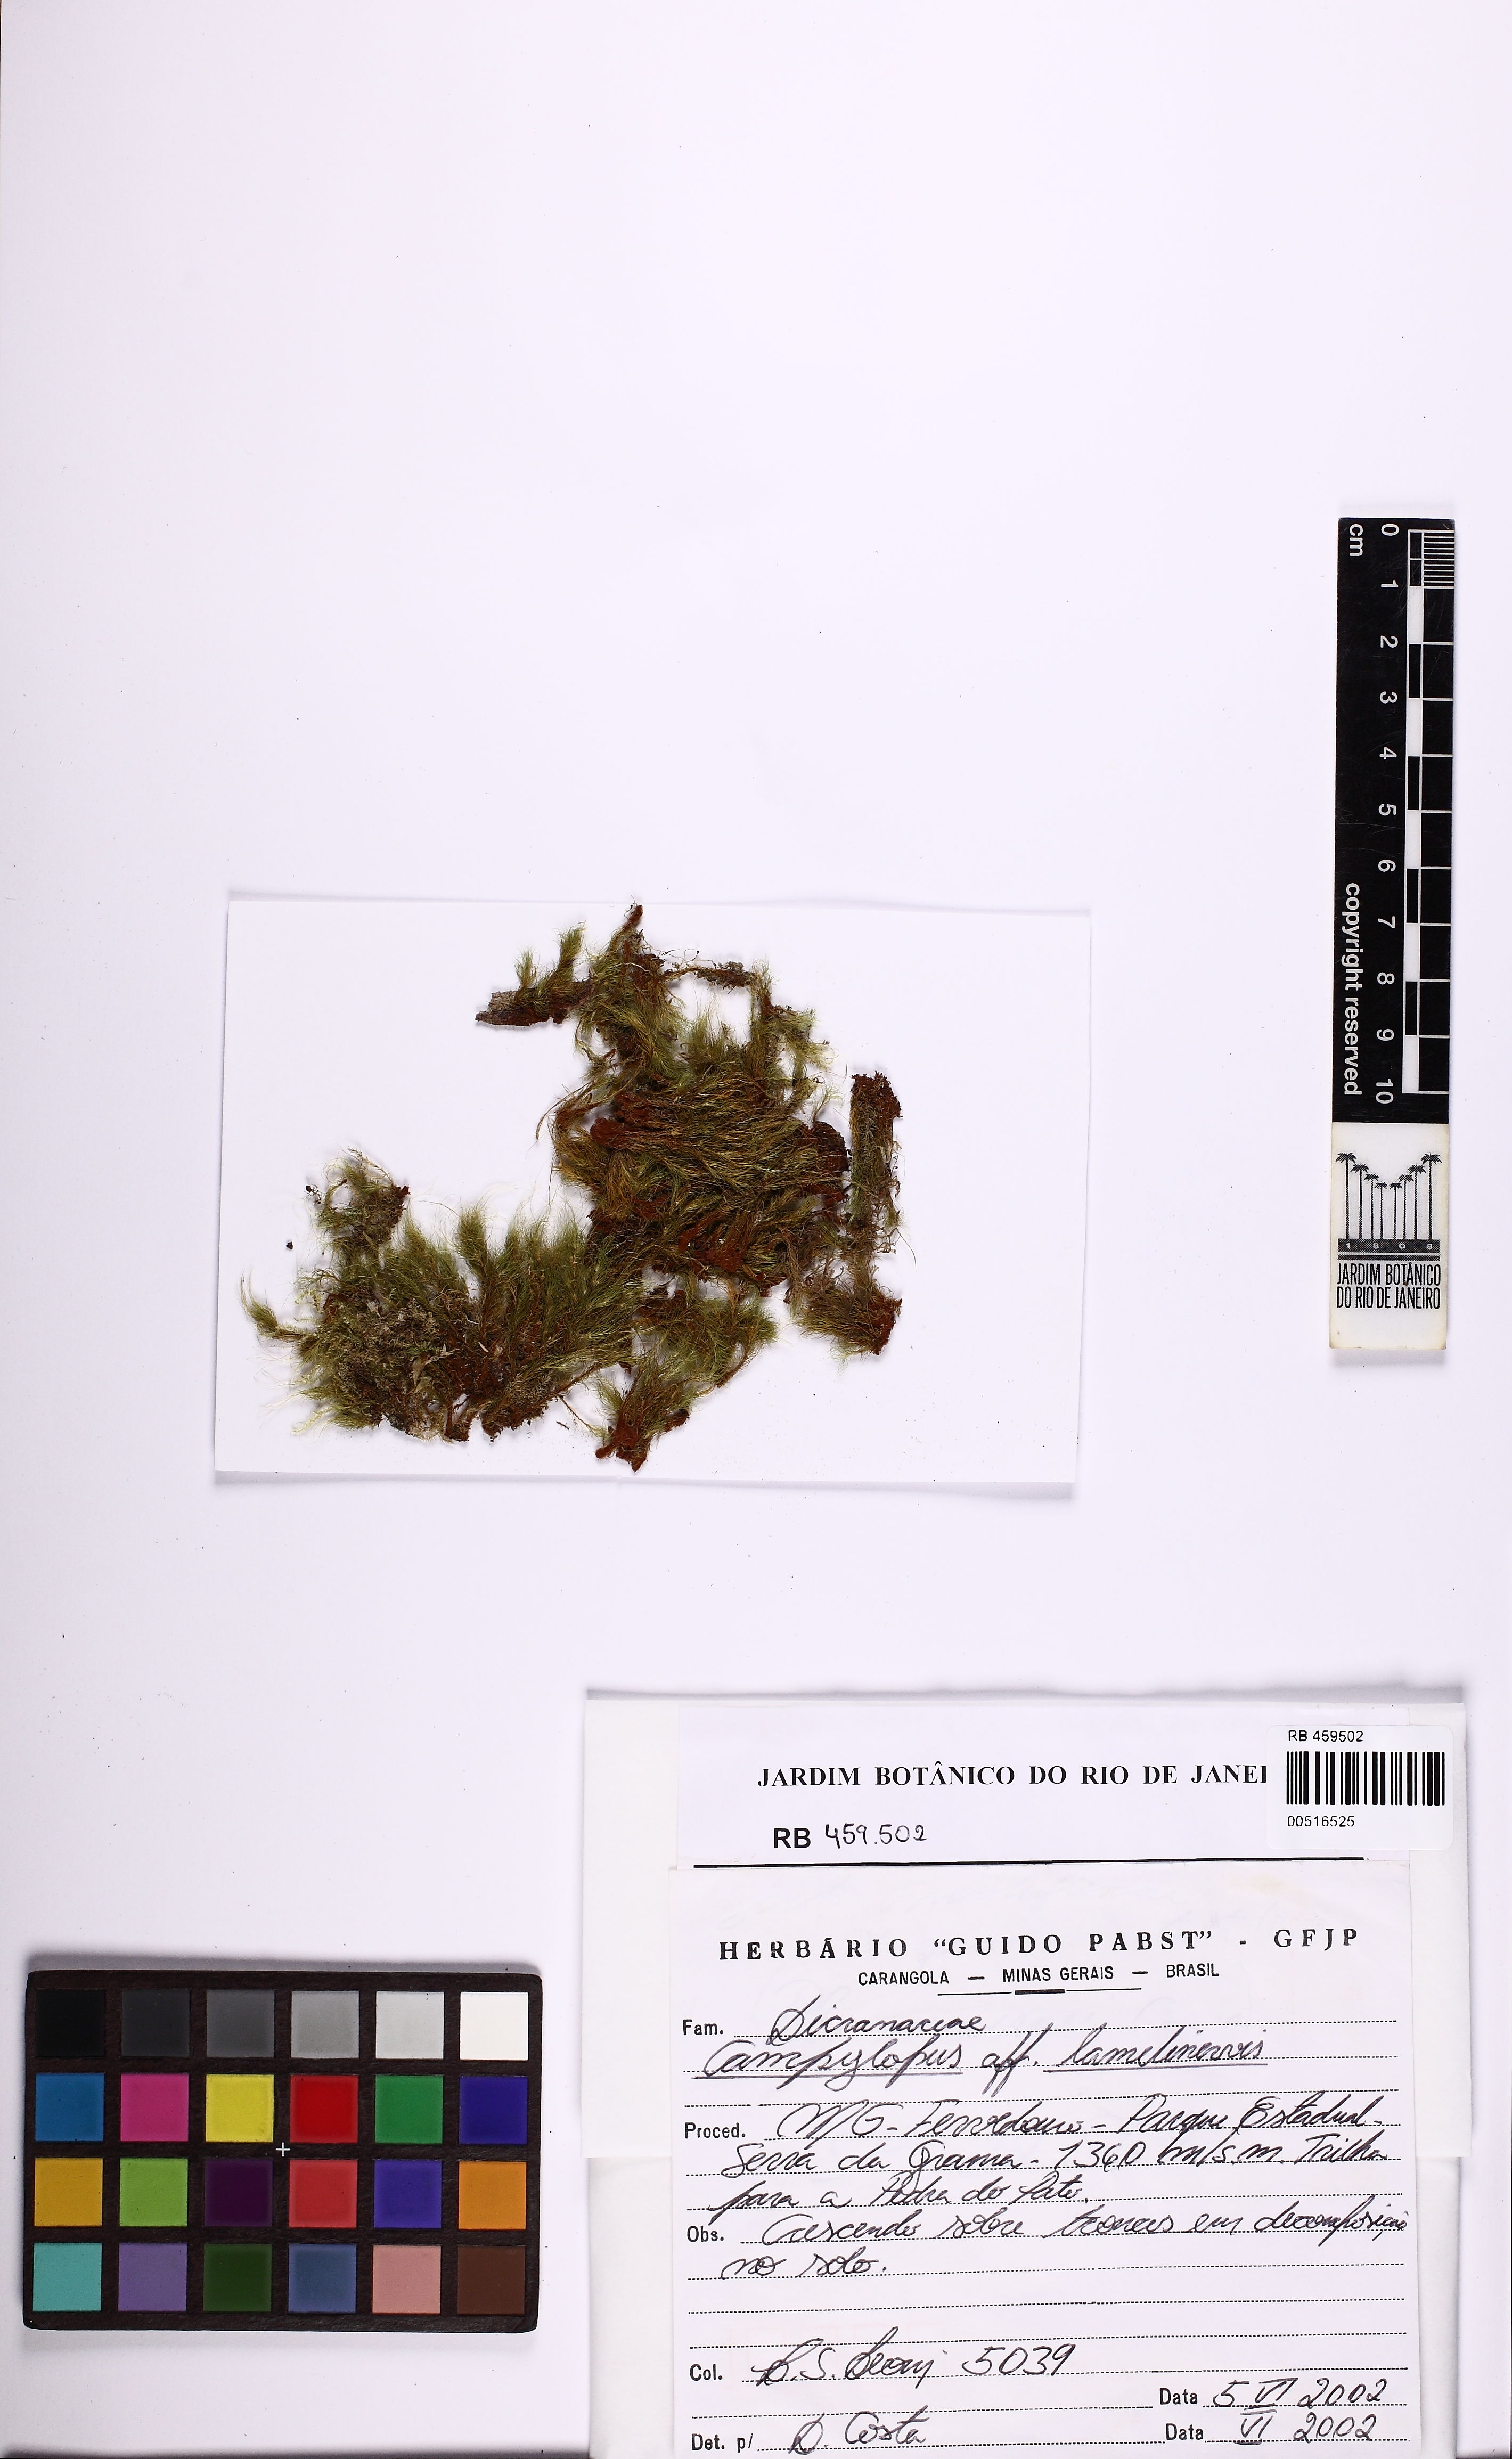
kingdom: Plantae
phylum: Bryophyta
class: Bryopsida
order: Dicranales
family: Leucobryaceae
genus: Campylopus
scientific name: Campylopus lamellinervis
